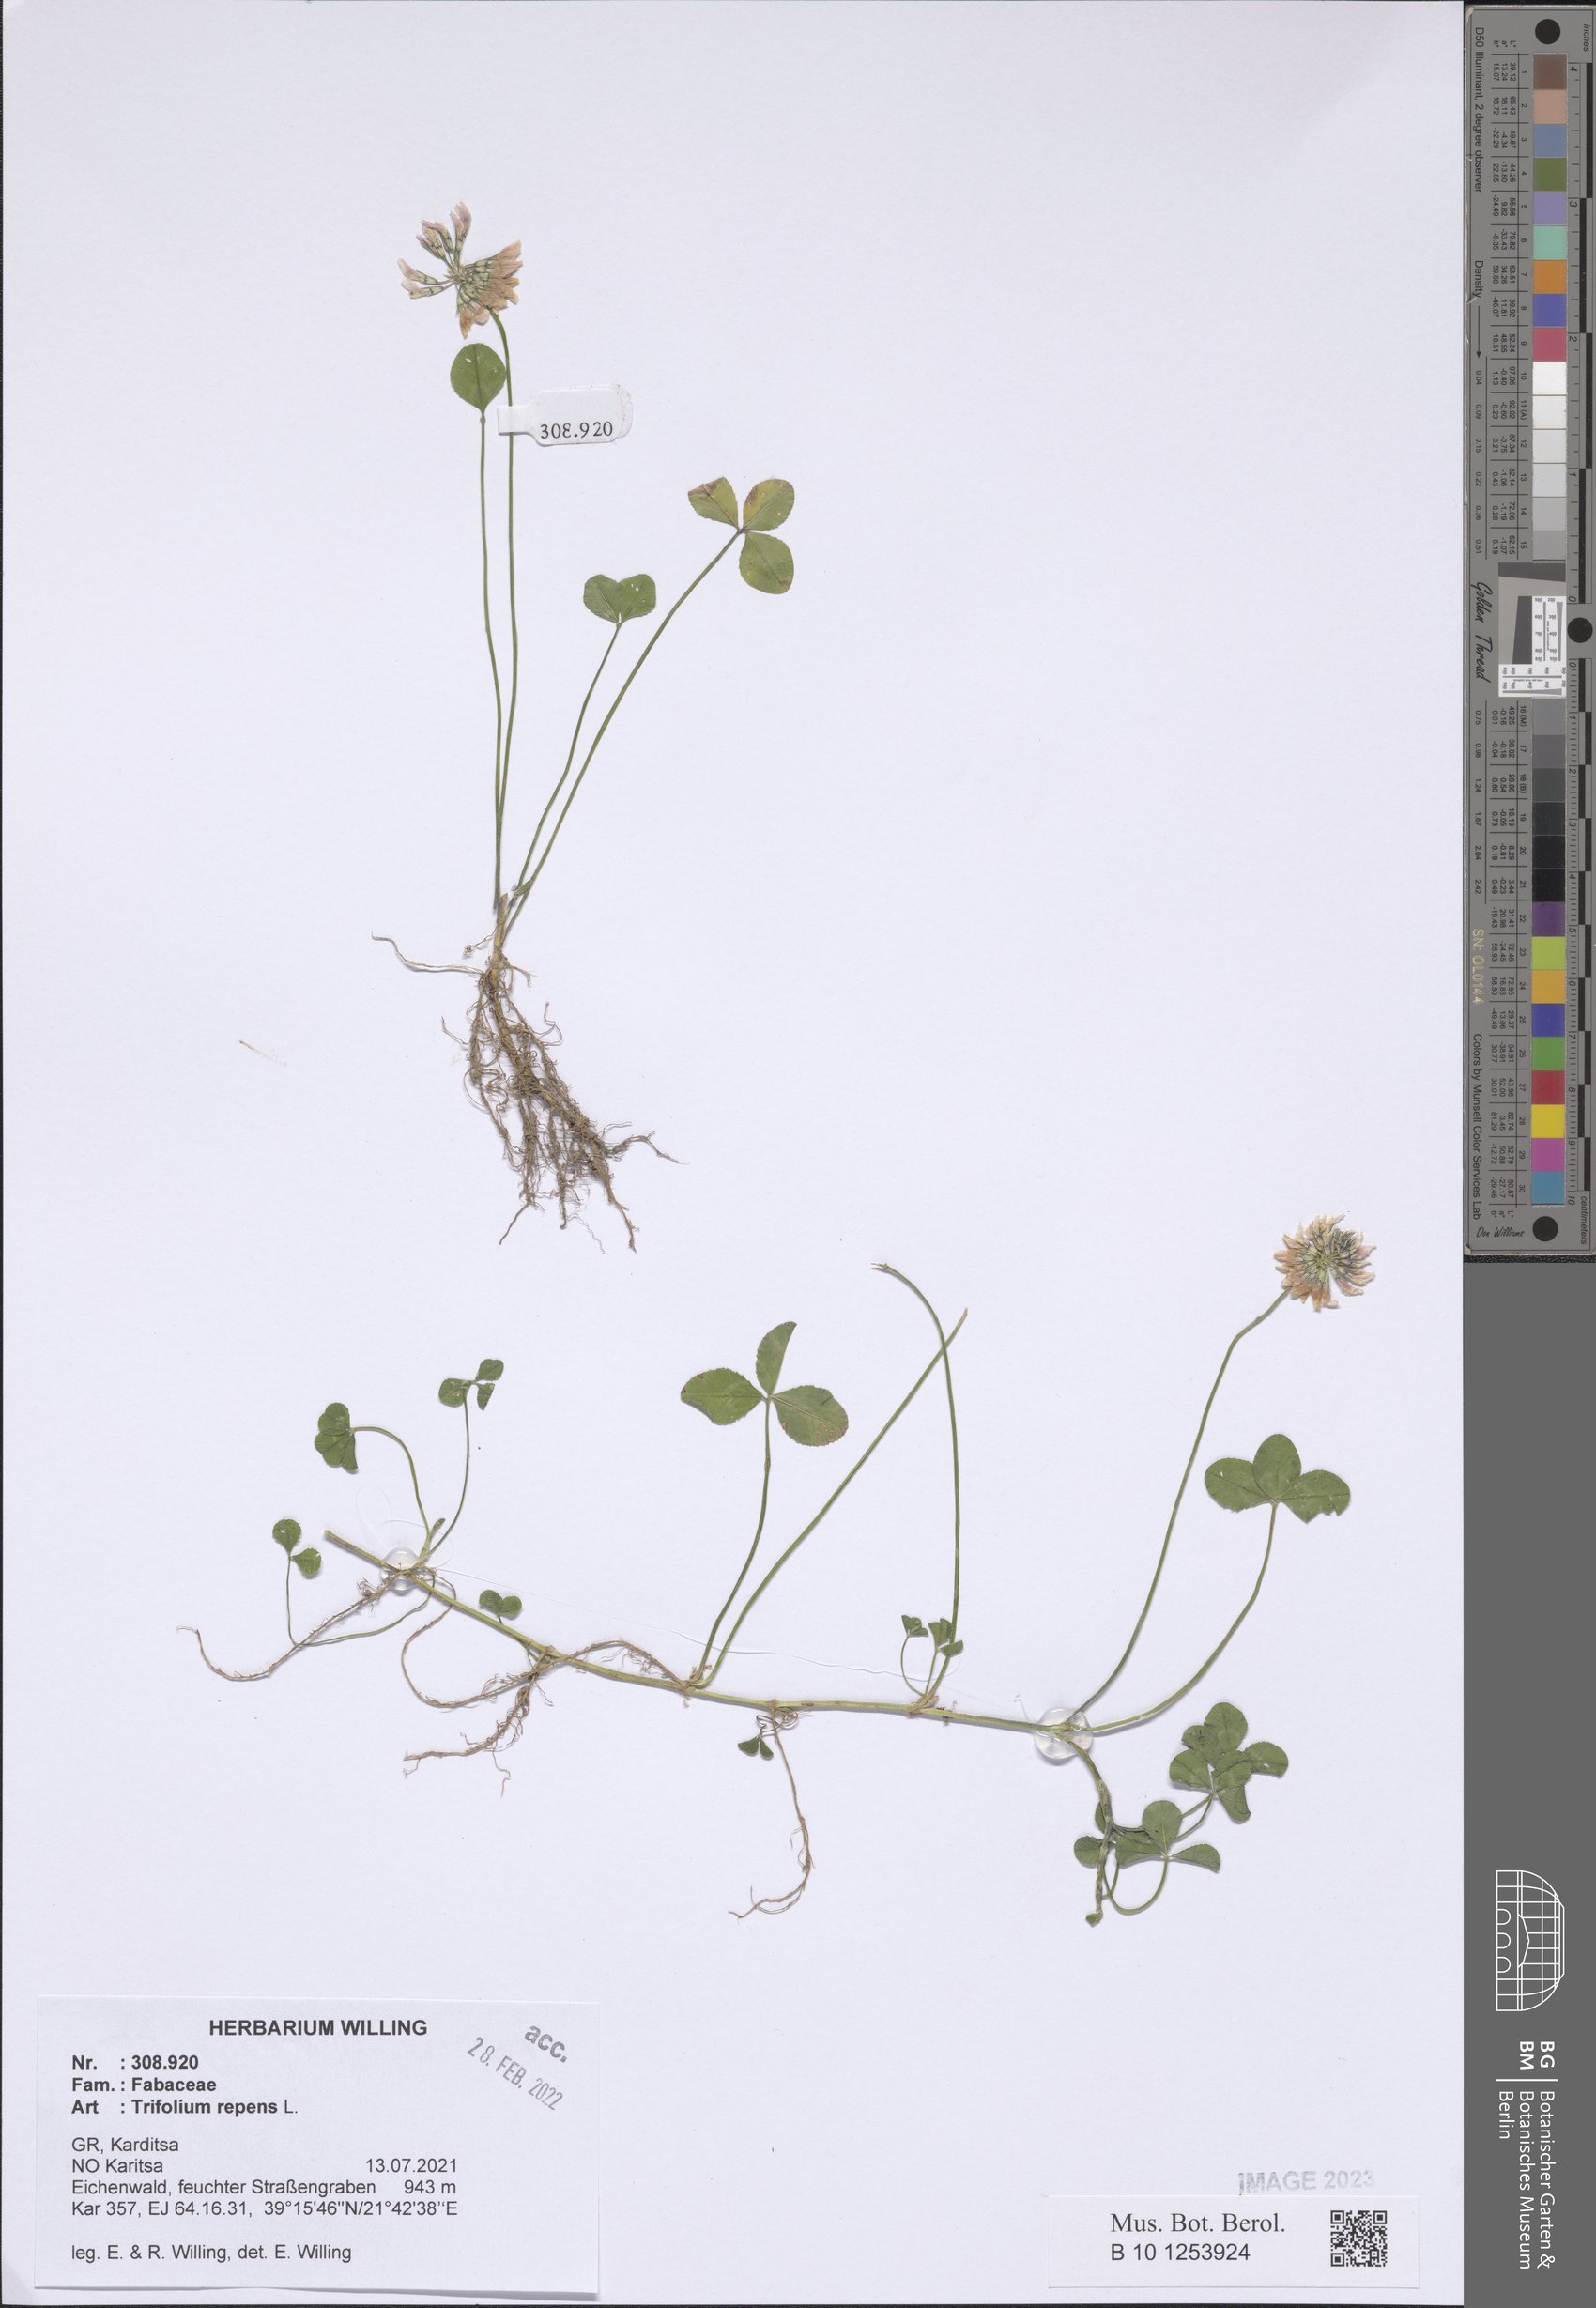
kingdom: Plantae
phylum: Tracheophyta
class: Magnoliopsida
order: Fabales
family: Fabaceae
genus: Trifolium
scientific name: Trifolium repens
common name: White clover
